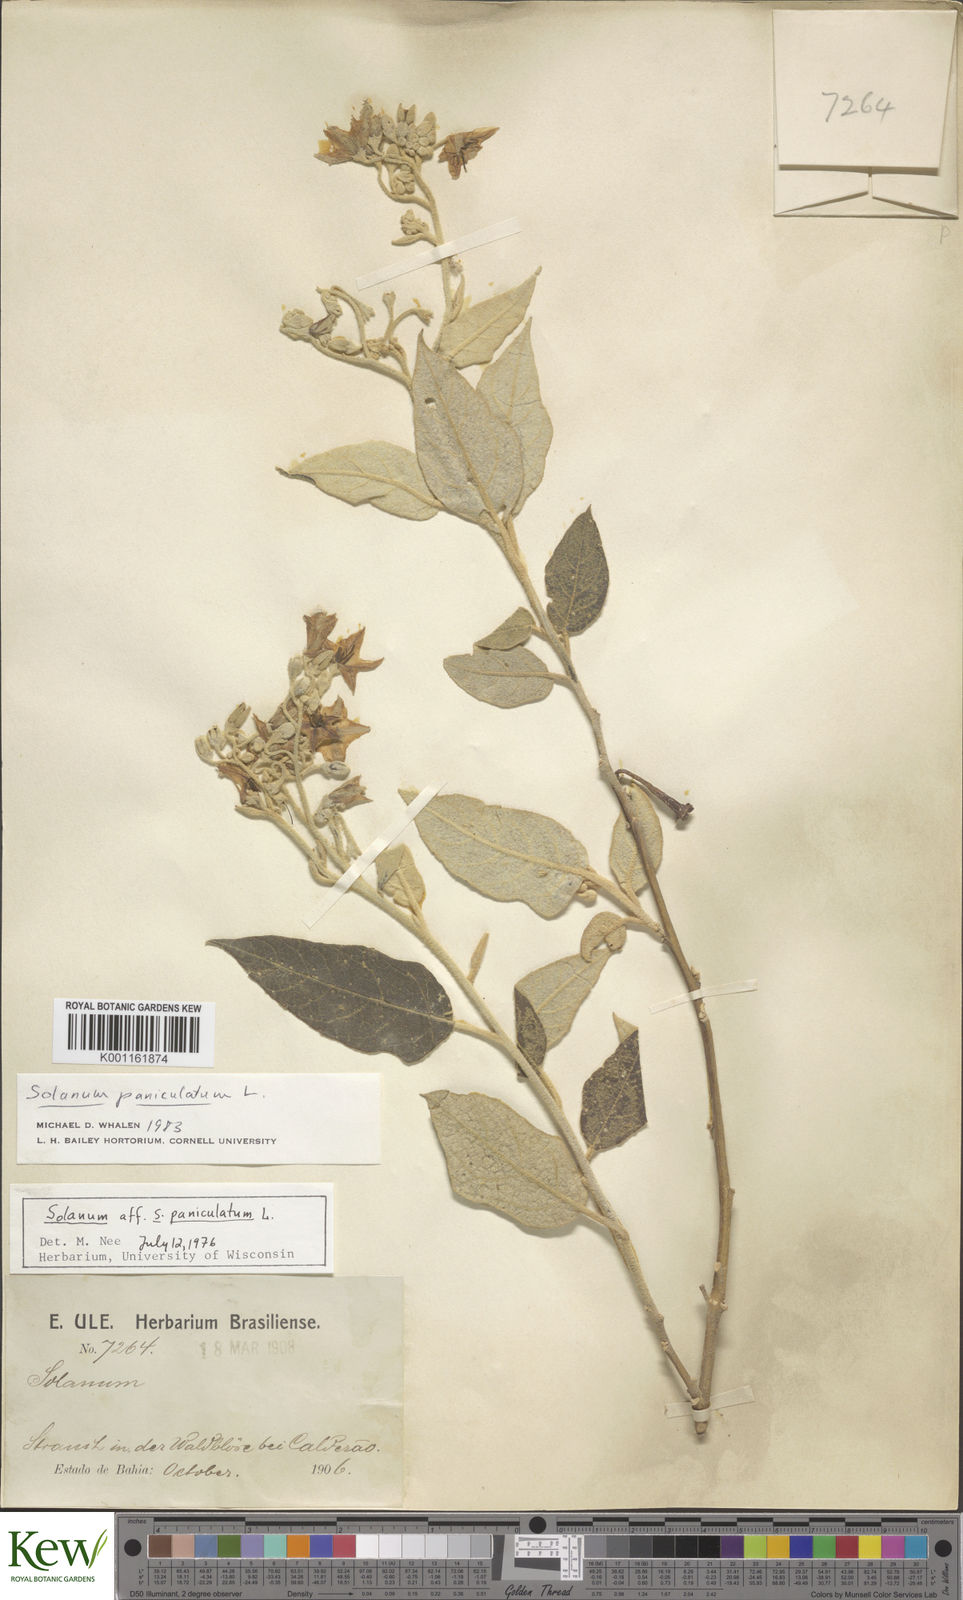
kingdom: Plantae
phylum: Tracheophyta
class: Magnoliopsida
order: Solanales
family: Solanaceae
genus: Solanum
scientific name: Solanum paniculatum
